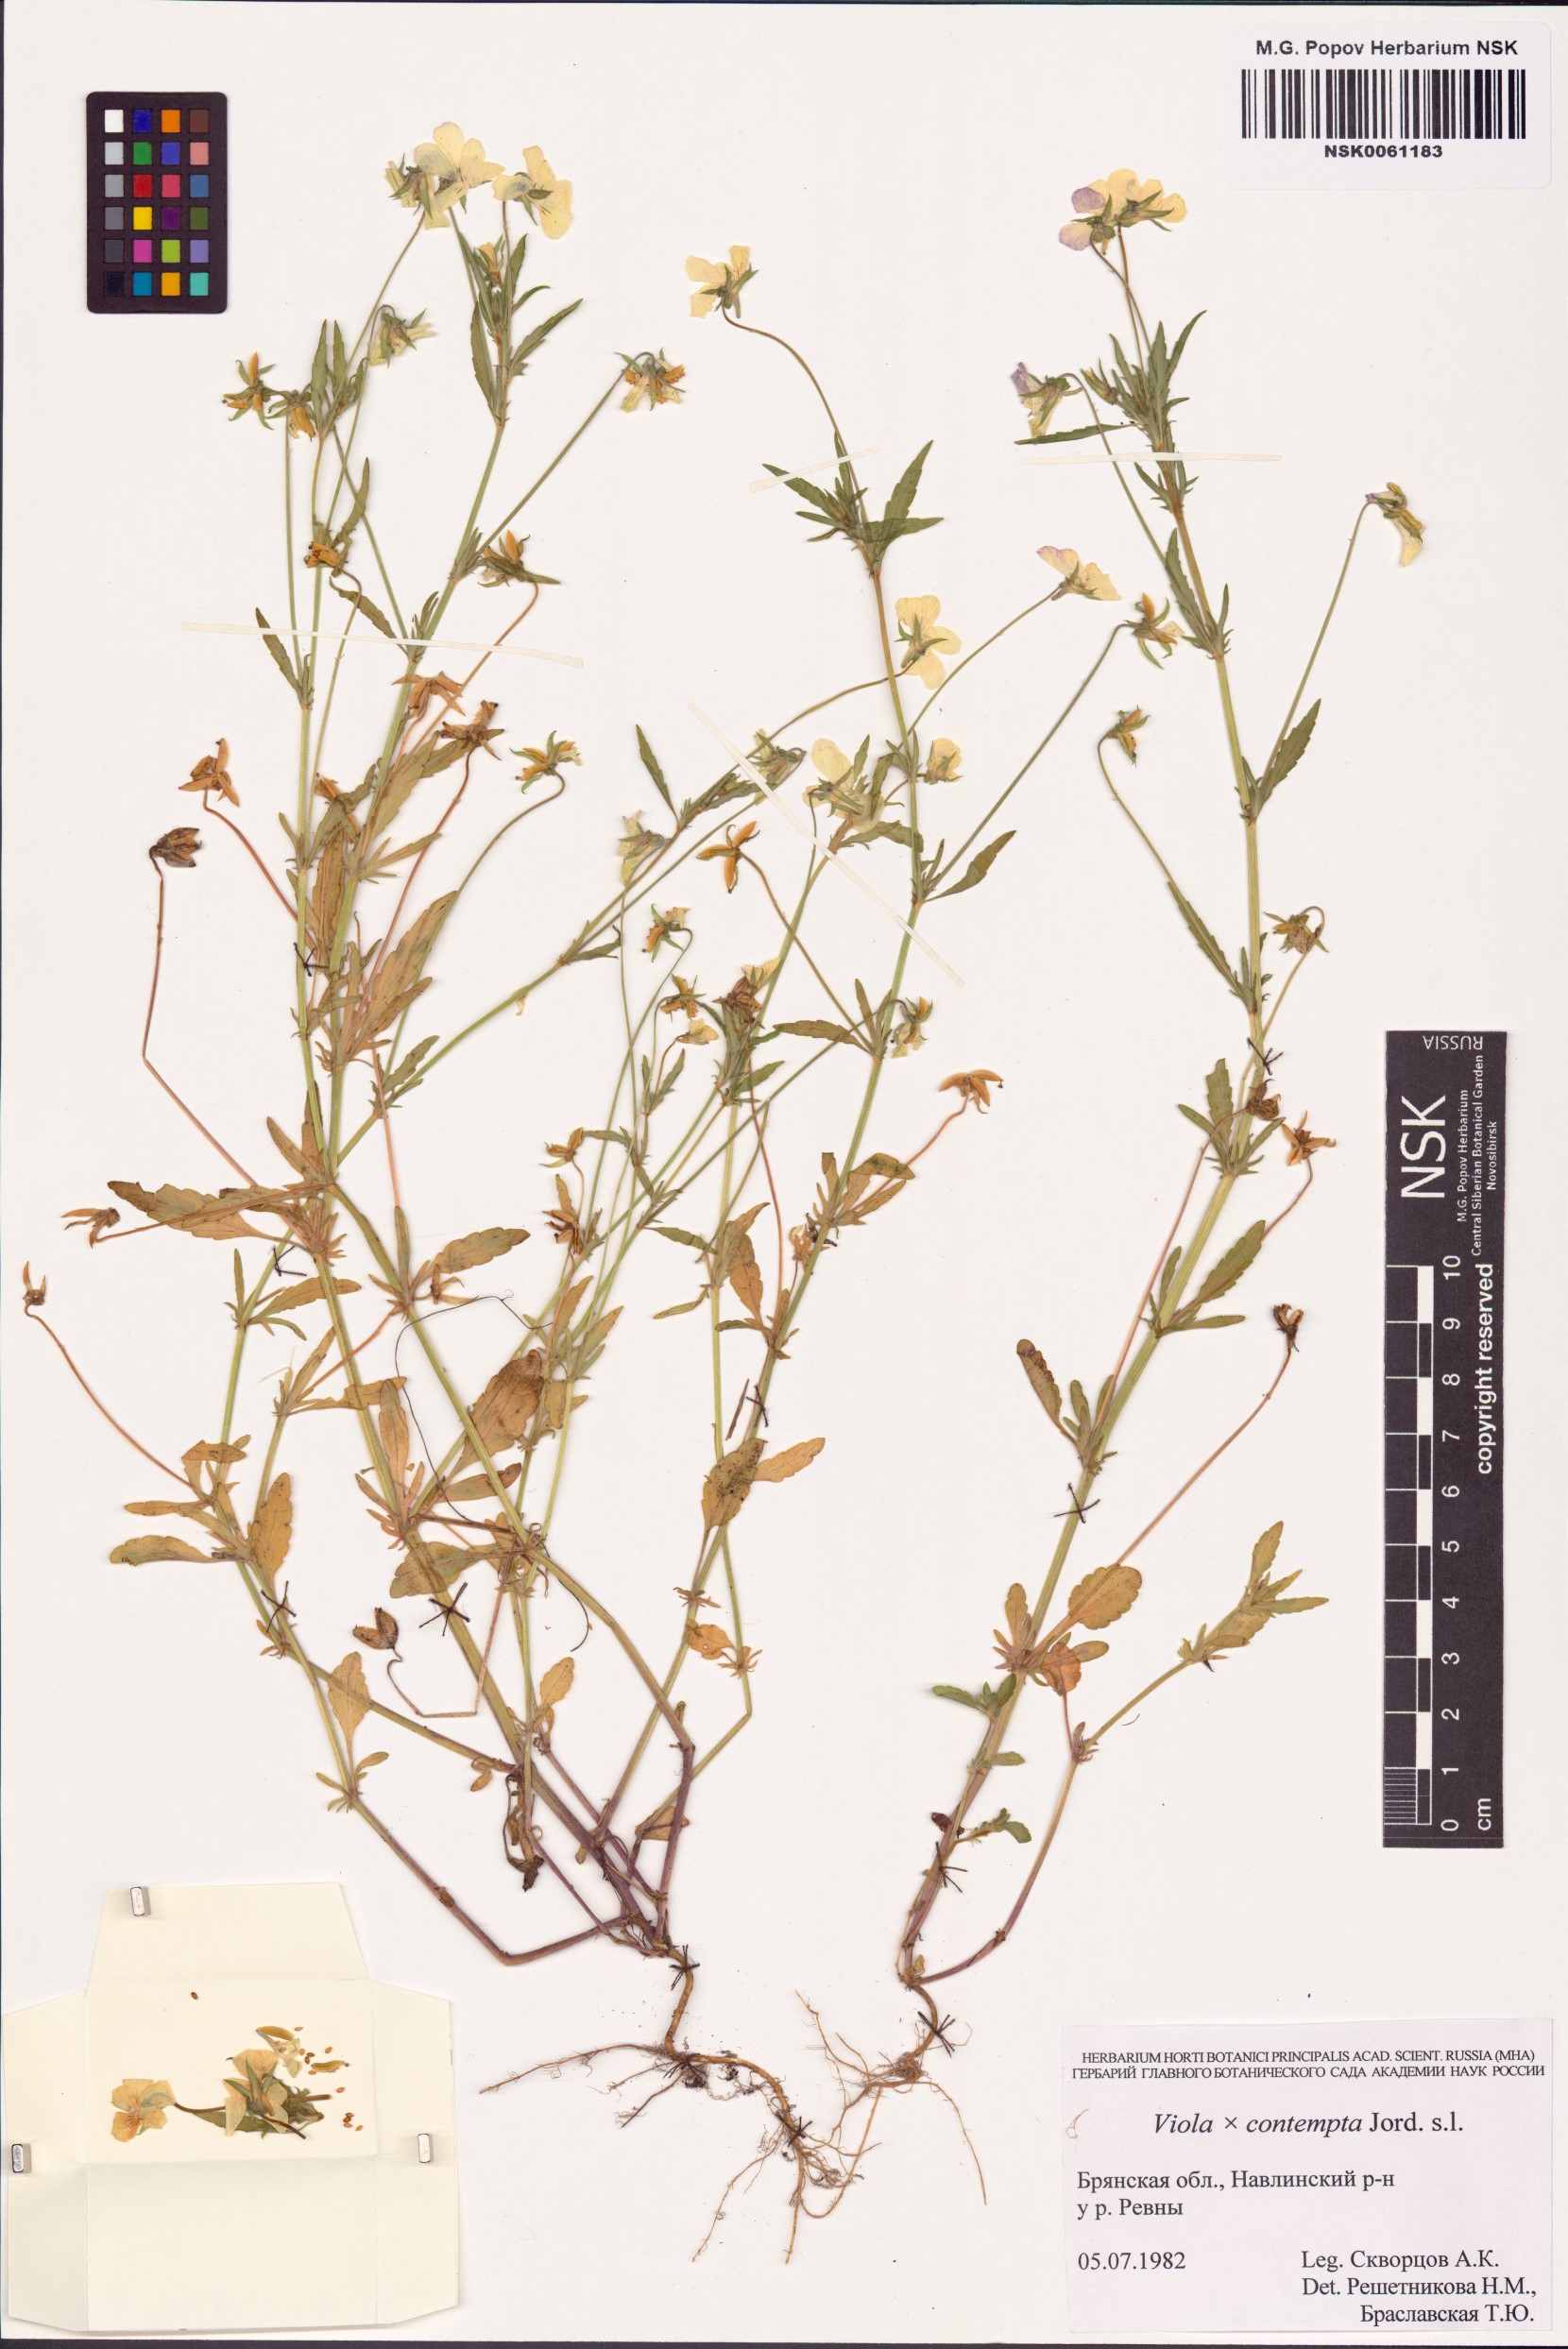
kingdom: Plantae
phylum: Tracheophyta
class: Magnoliopsida
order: Malpighiales
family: Violaceae
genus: Viola
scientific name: Viola contempta
